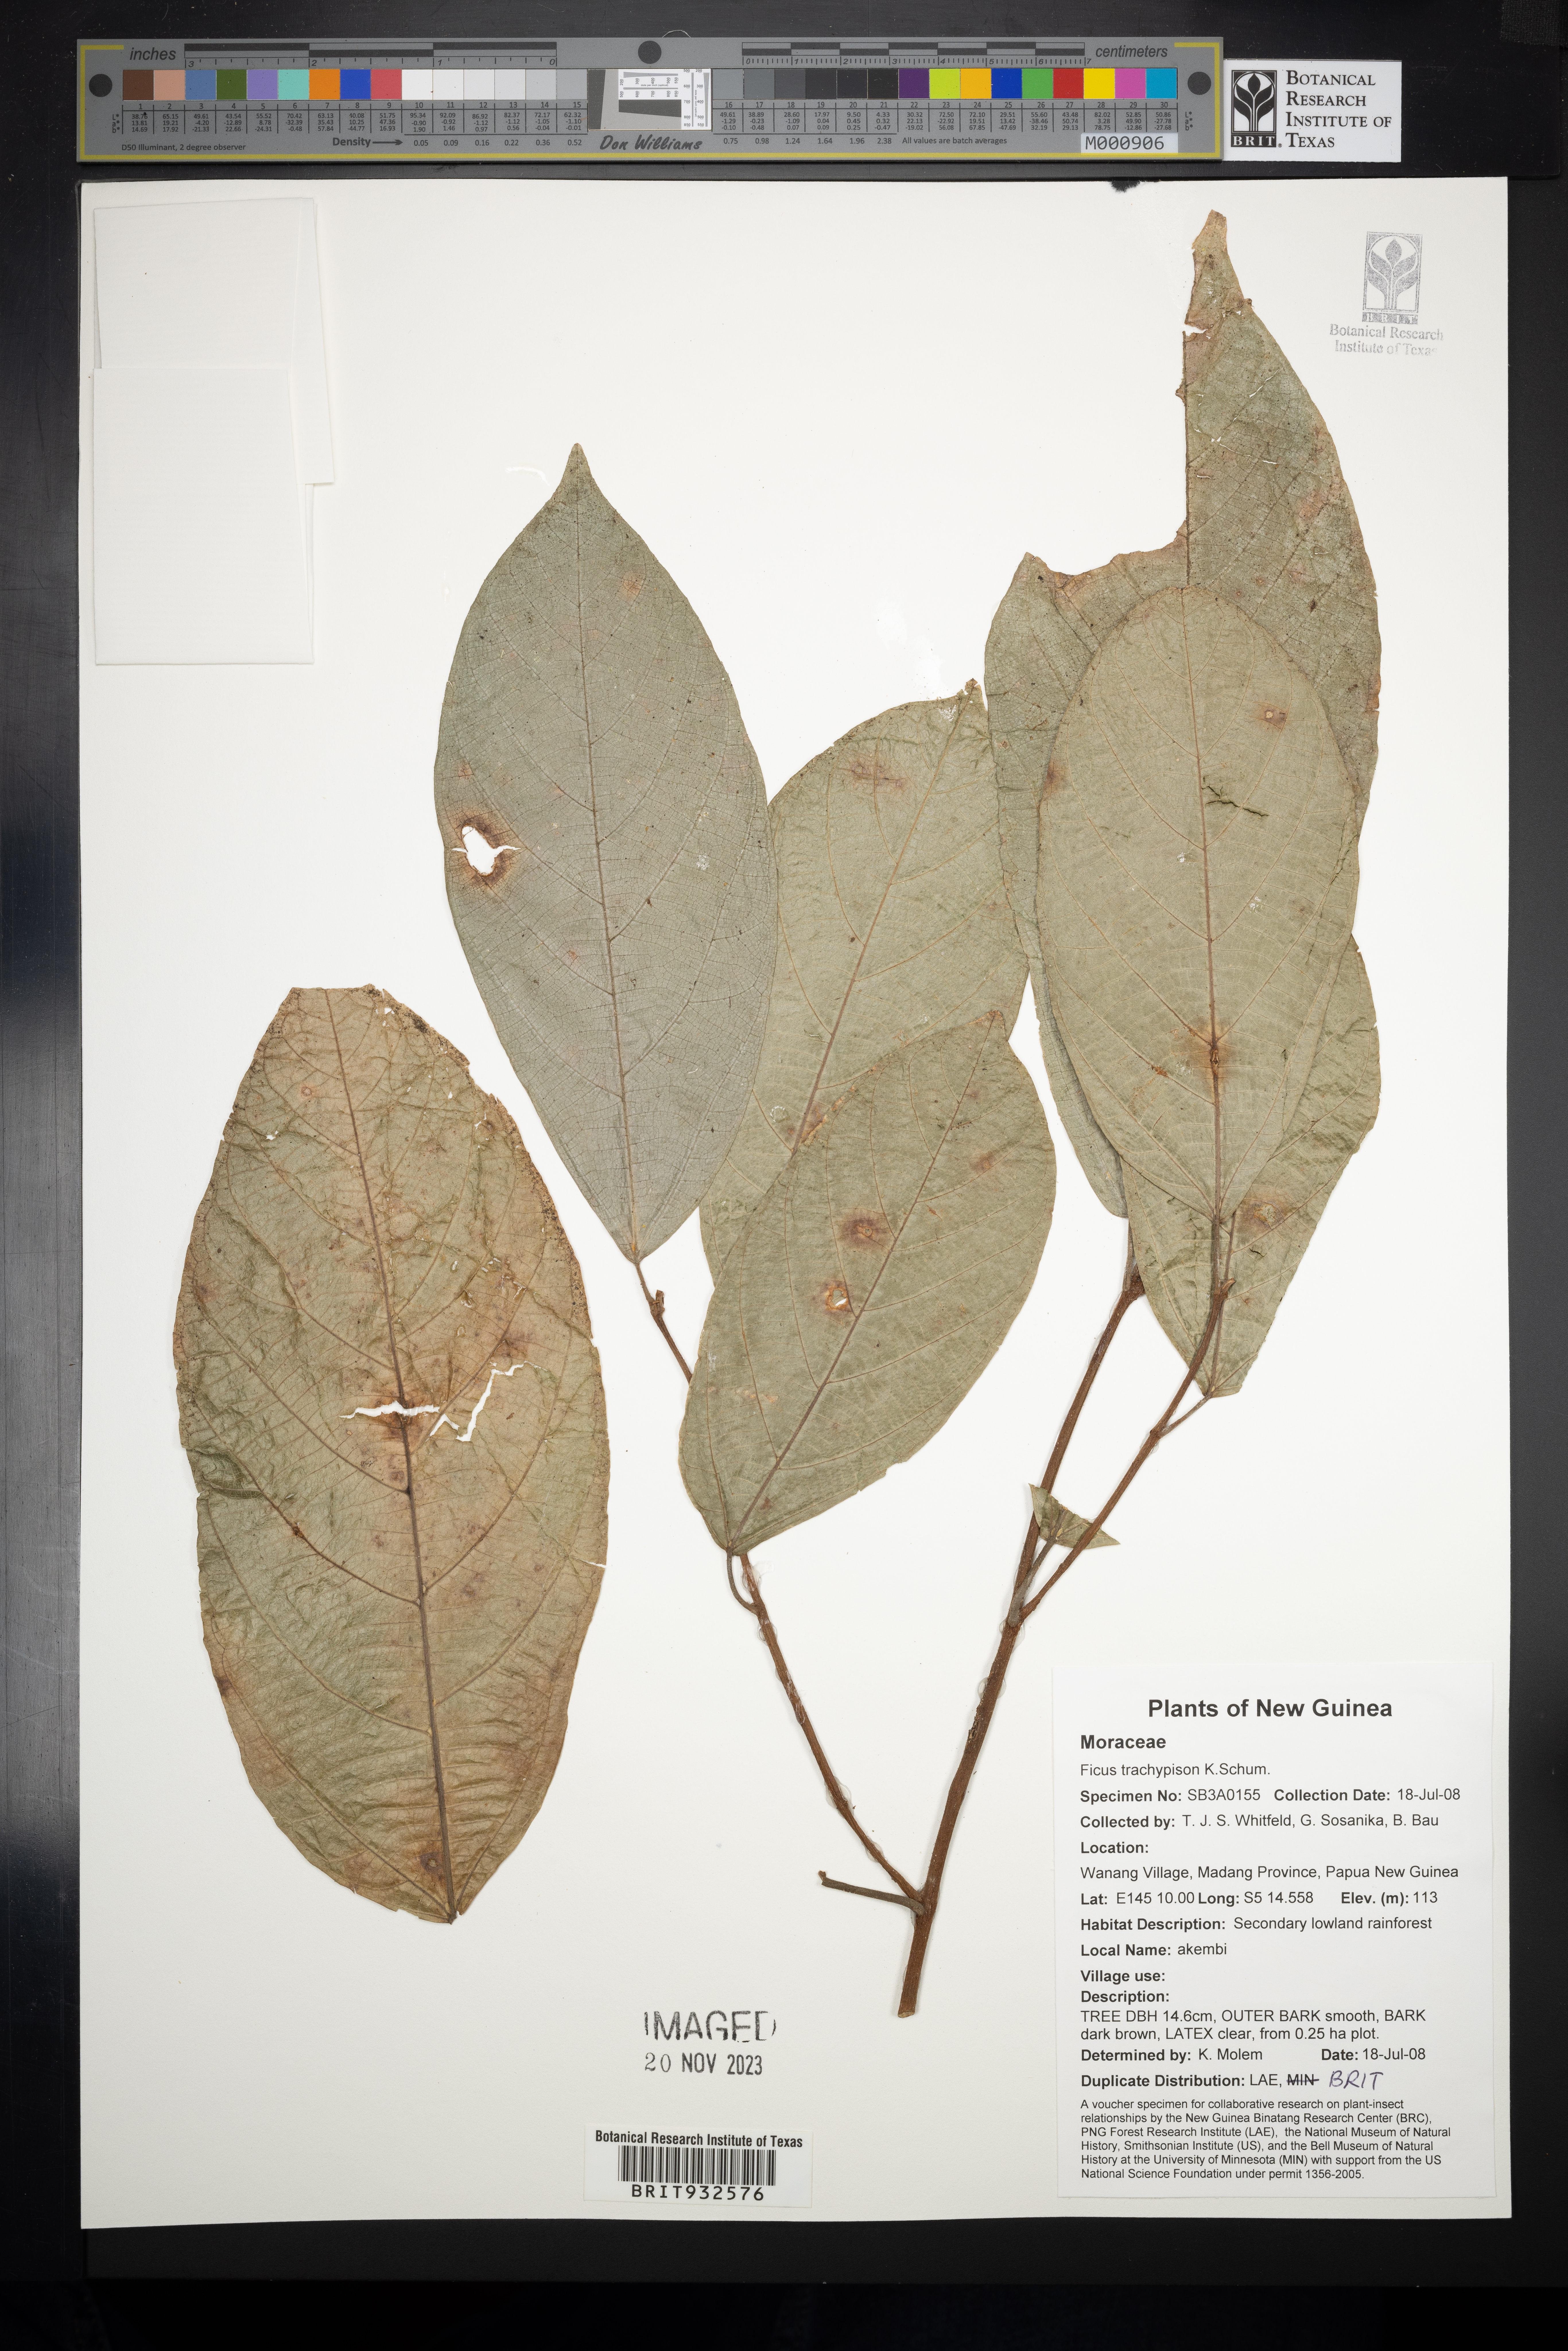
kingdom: Plantae
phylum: Tracheophyta
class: Magnoliopsida
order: Rosales
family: Moraceae
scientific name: Moraceae
